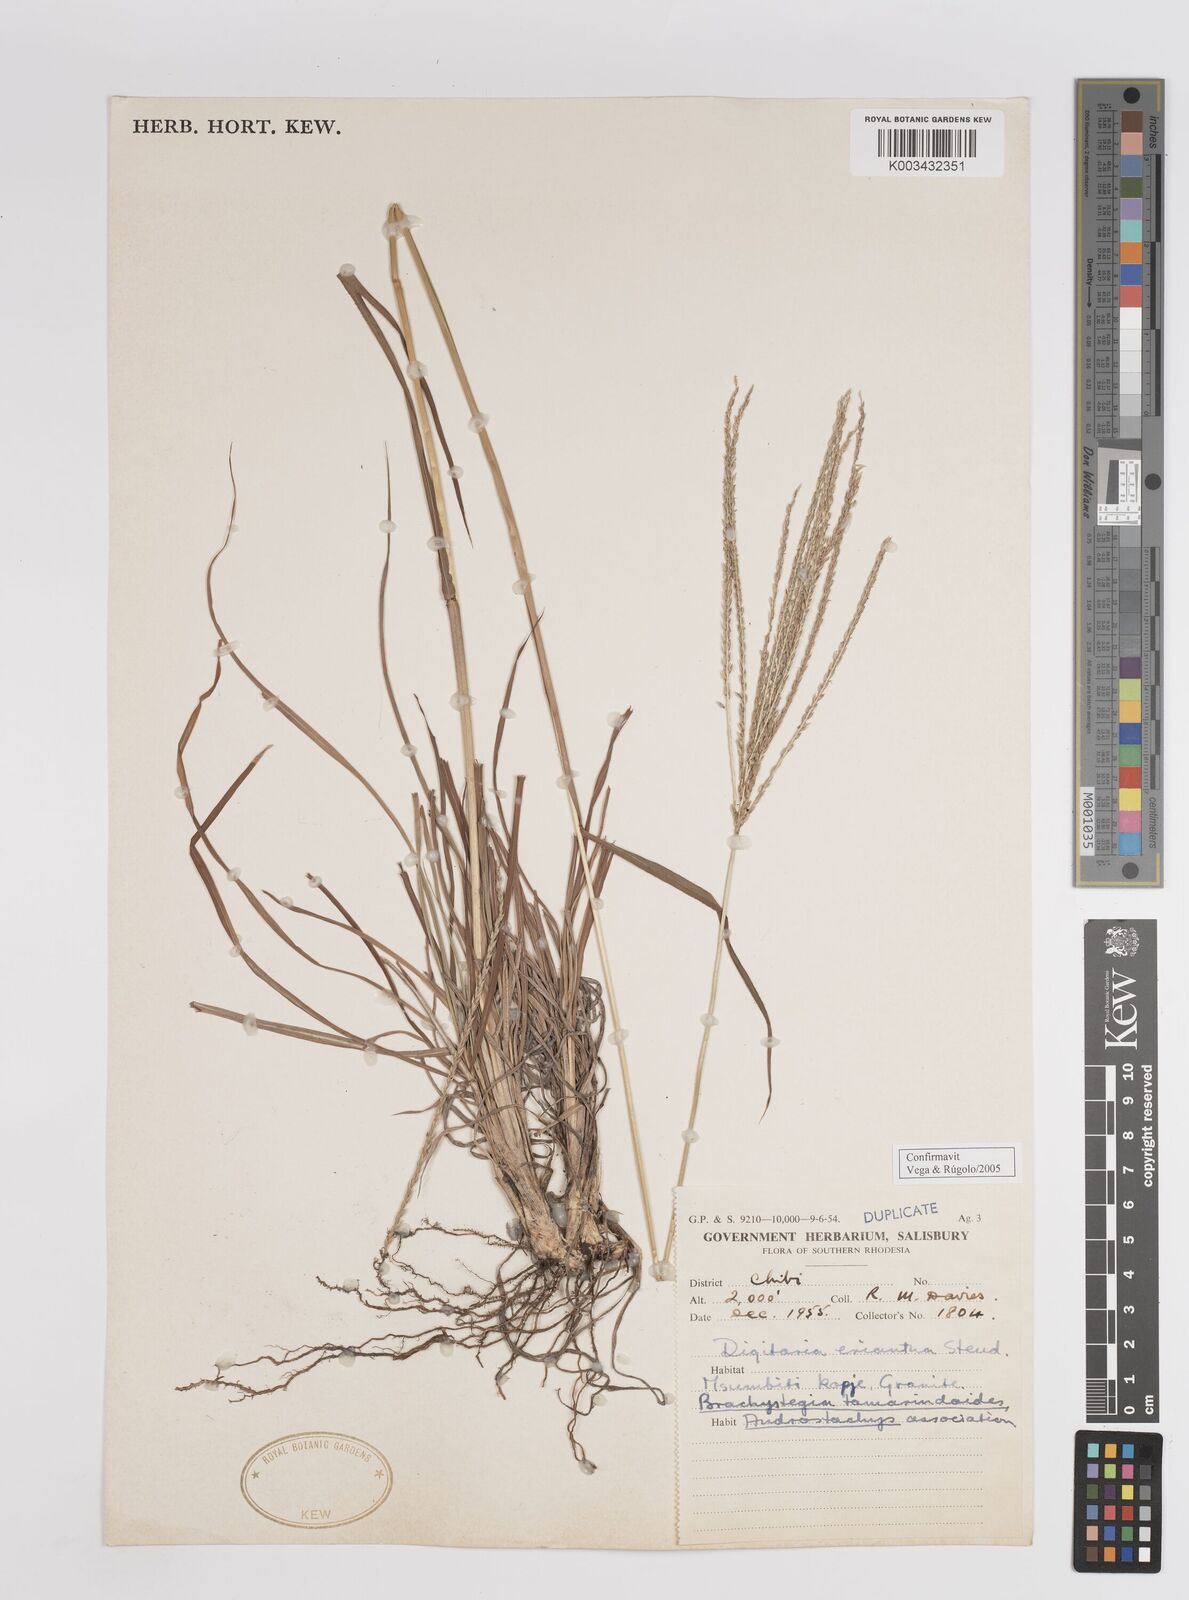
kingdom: Plantae
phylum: Tracheophyta
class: Liliopsida
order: Poales
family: Poaceae
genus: Digitaria
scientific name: Digitaria eriantha
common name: Digitgrass
